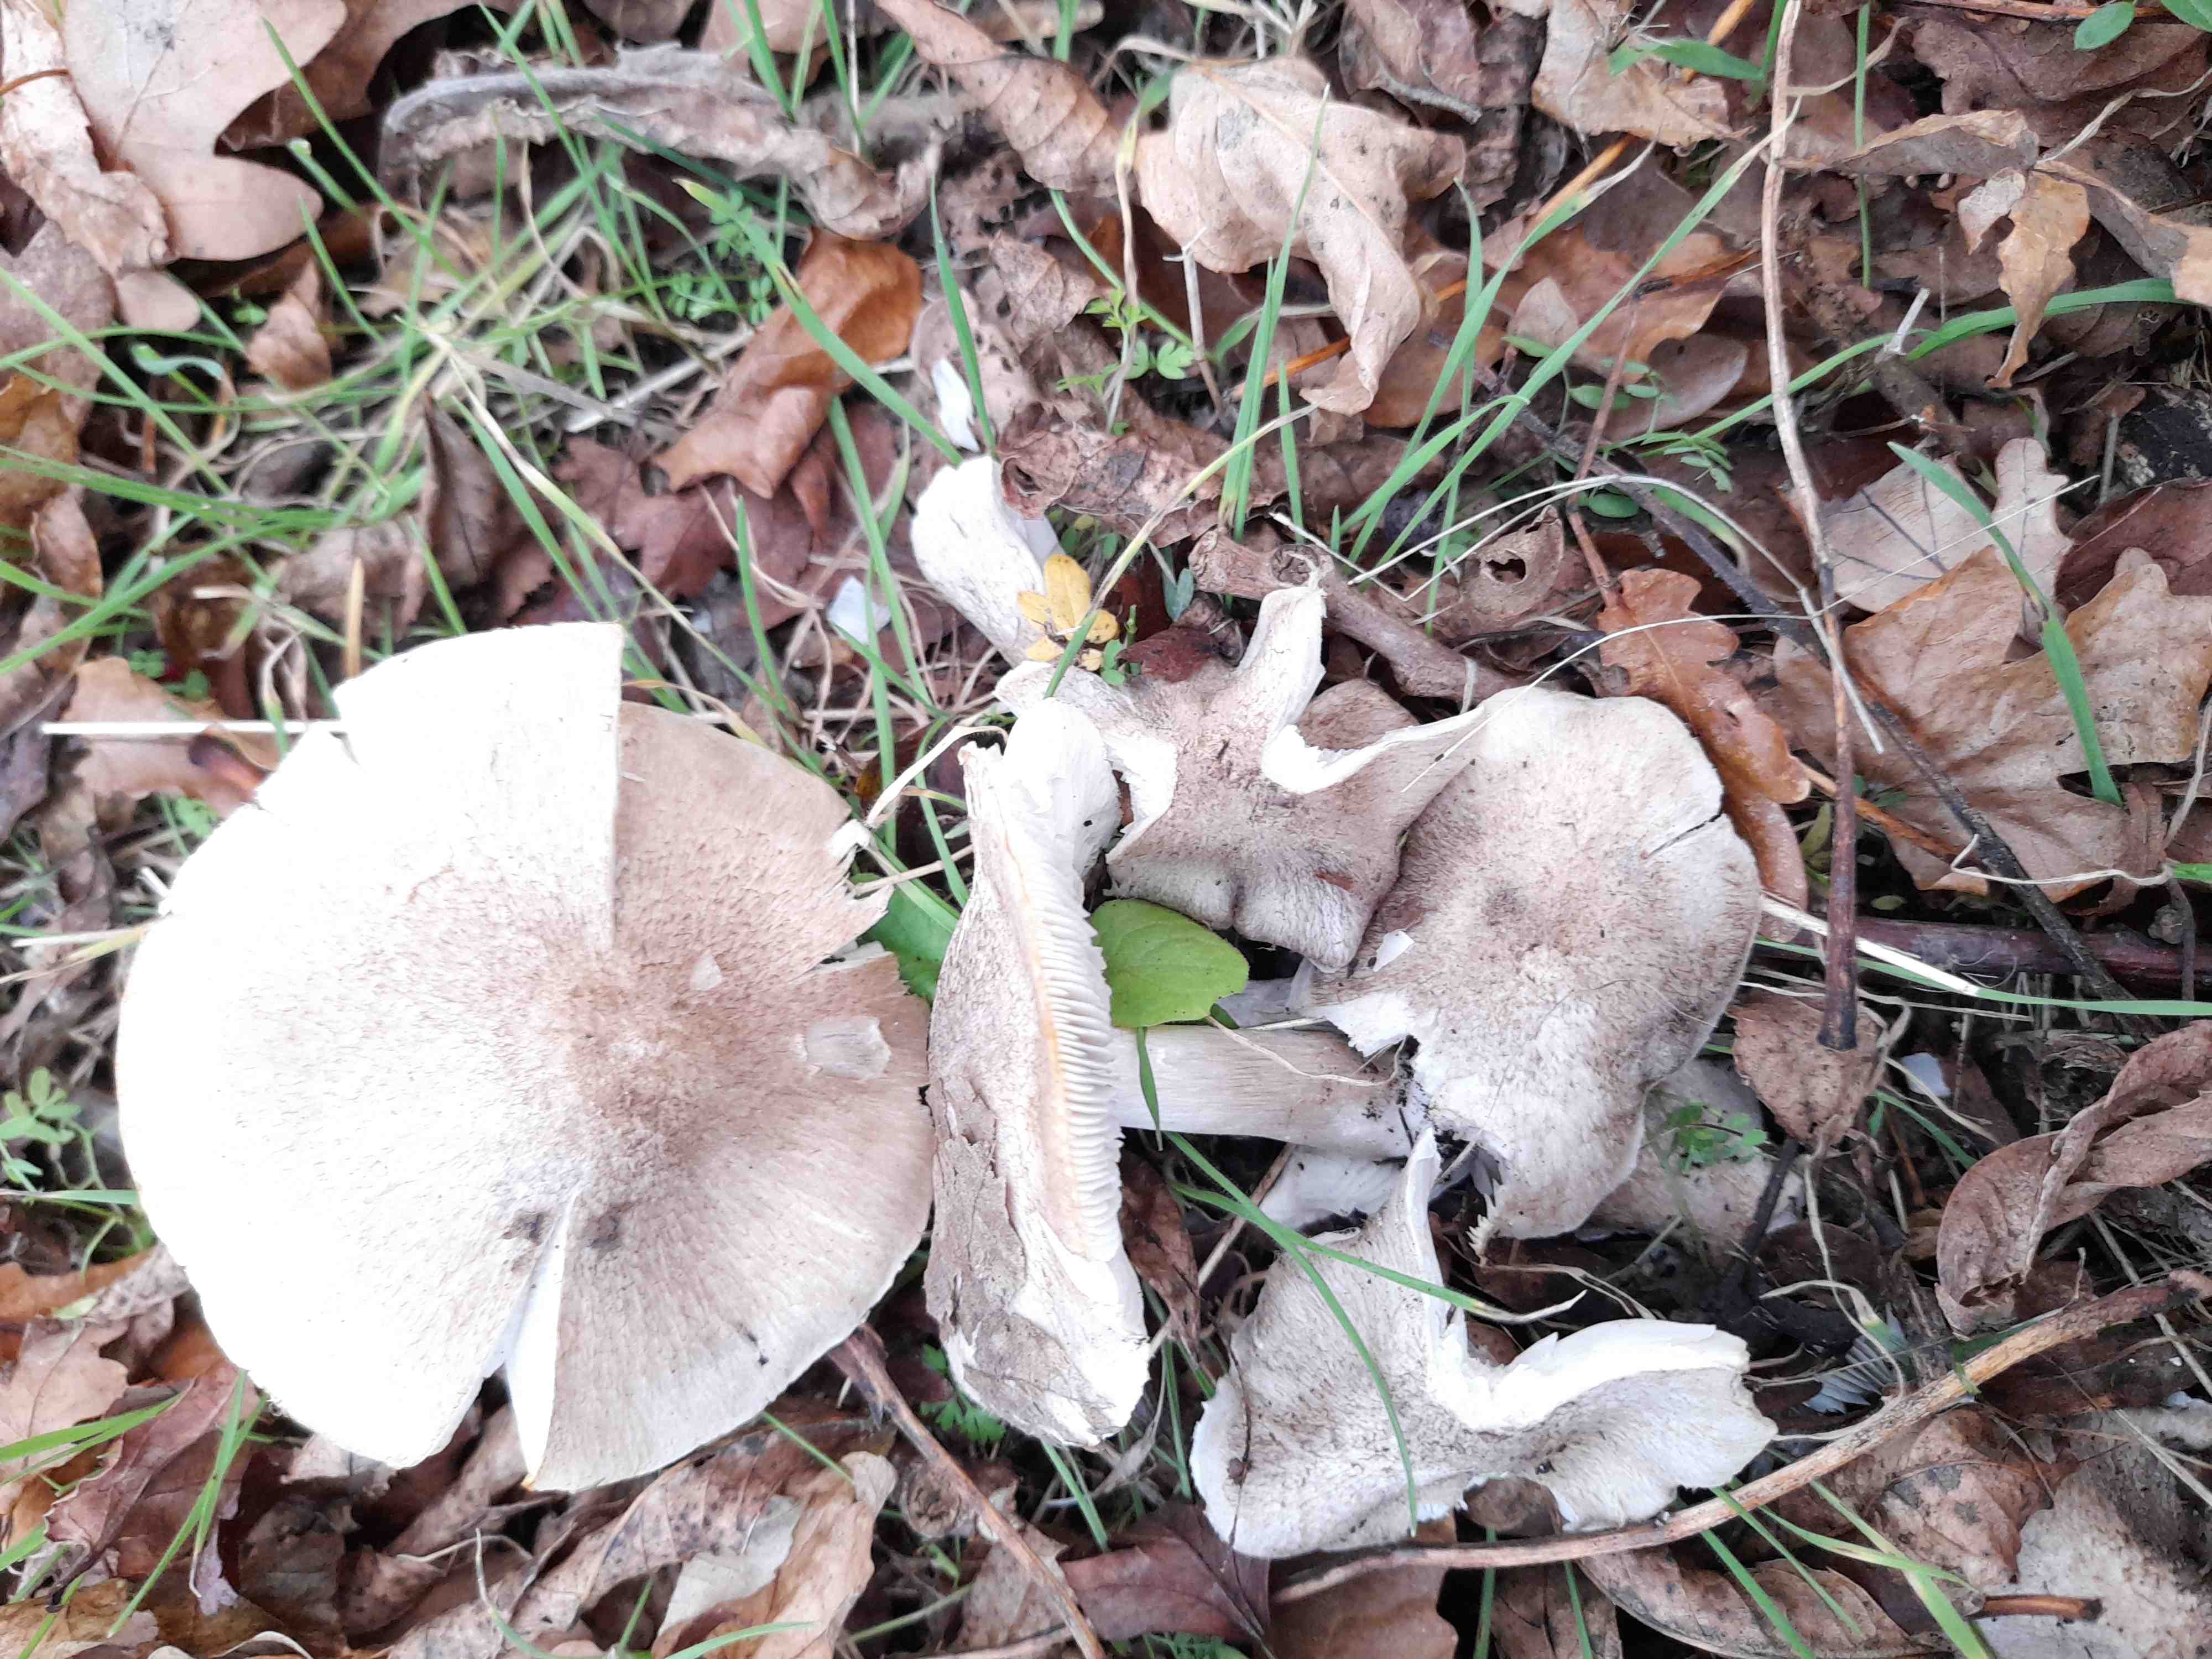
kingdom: Fungi
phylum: Basidiomycota
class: Agaricomycetes
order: Agaricales
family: Tricholomataceae
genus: Tricholoma
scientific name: Tricholoma scalpturatum
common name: gulplettet ridderhat
